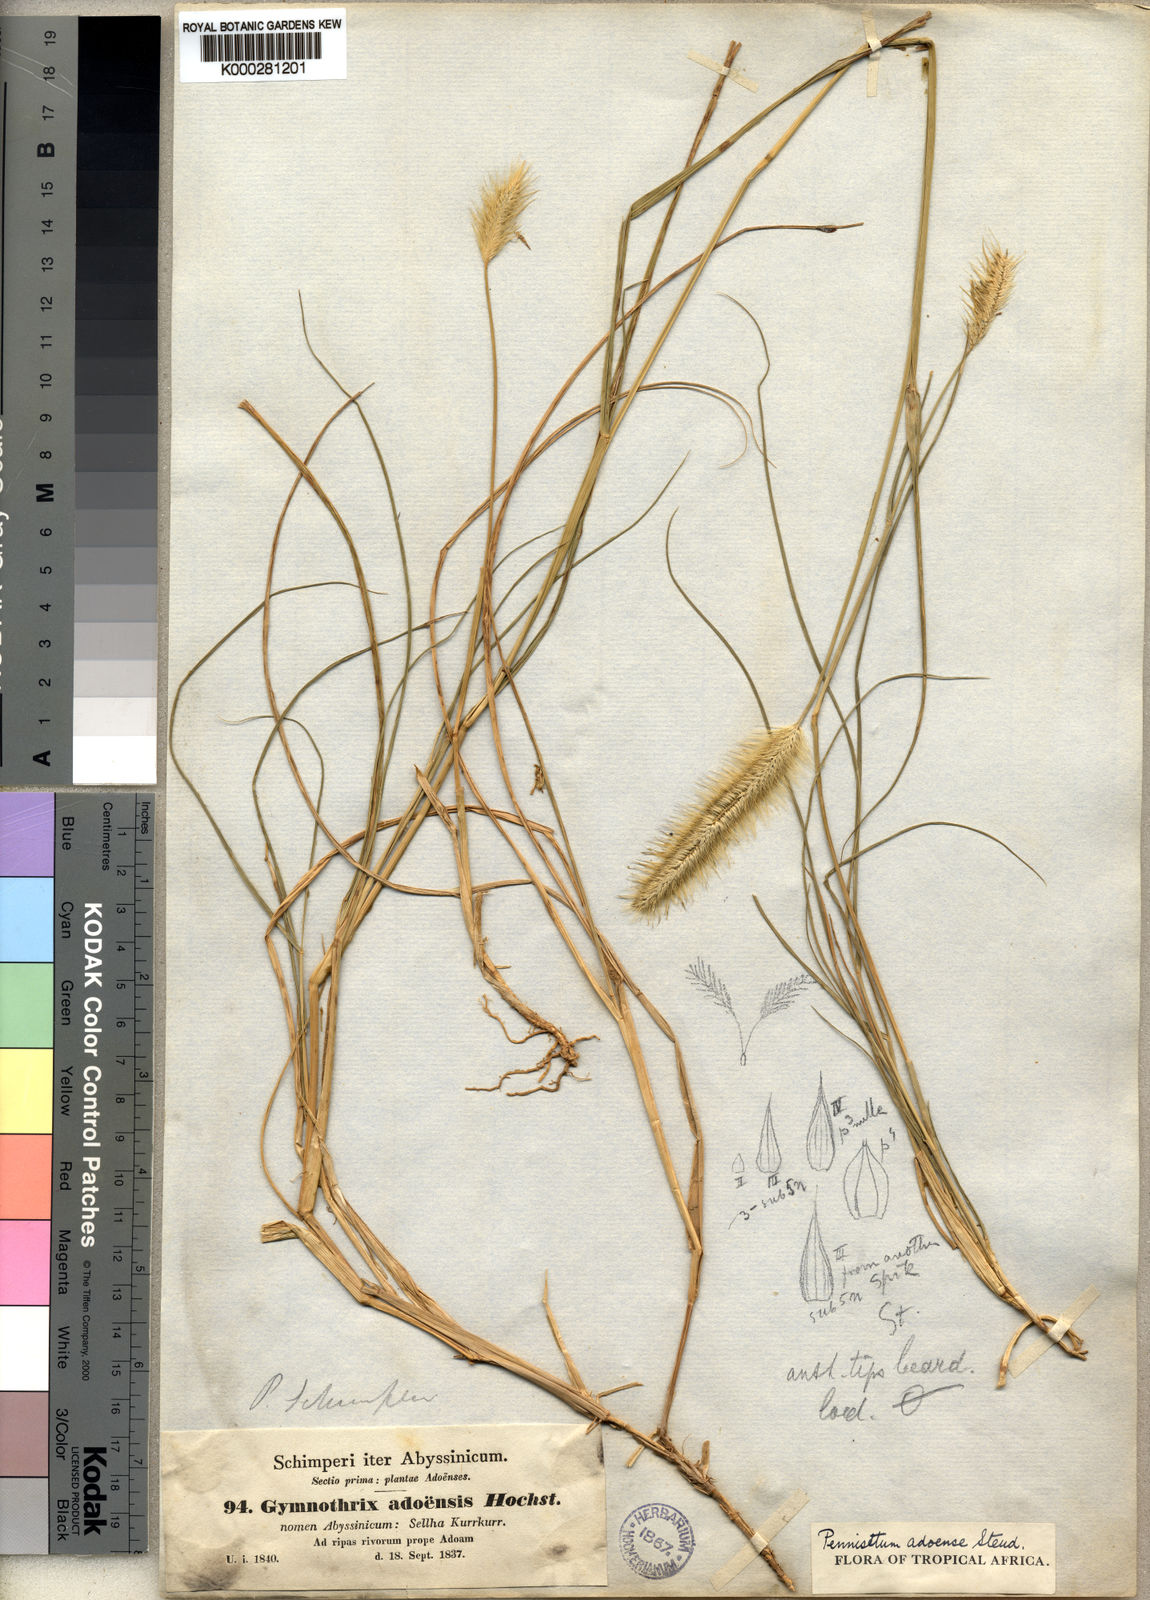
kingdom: Plantae
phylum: Tracheophyta
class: Liliopsida
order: Poales
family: Poaceae
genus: Cenchrus
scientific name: Cenchrus petiolaris
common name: Grass
